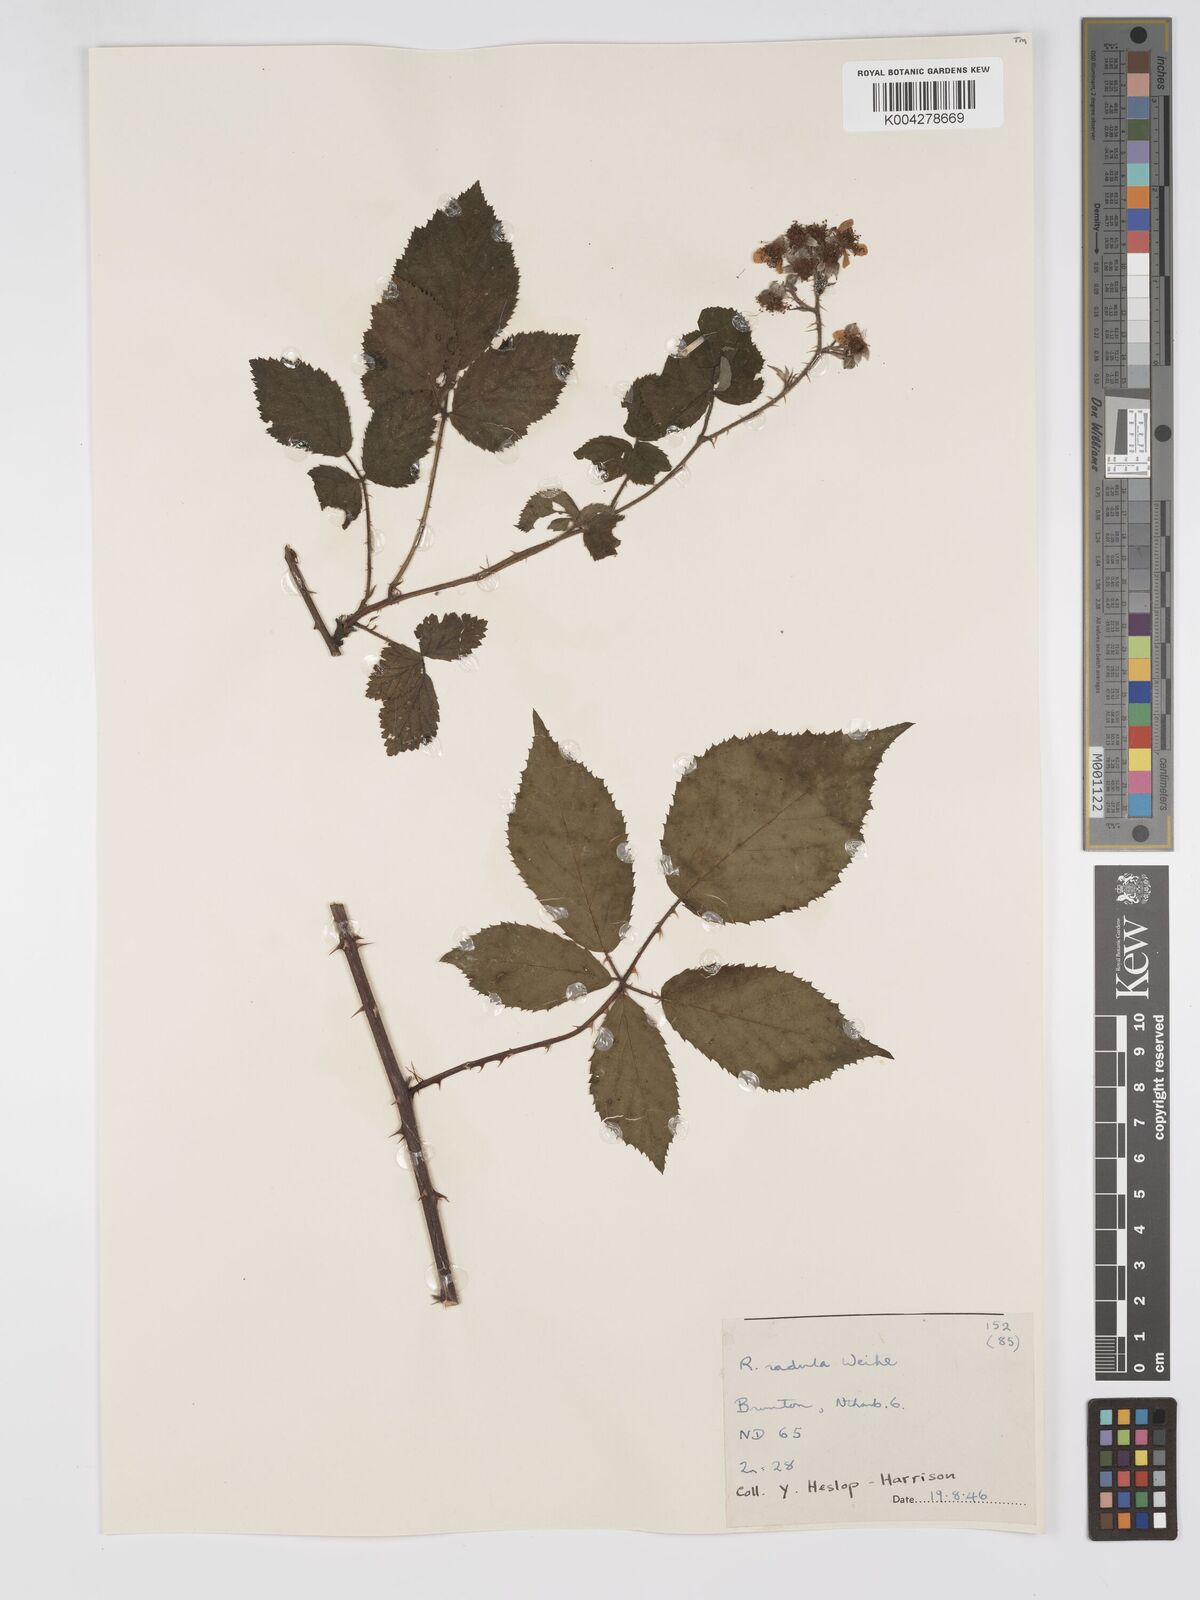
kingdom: Plantae
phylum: Tracheophyta
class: Magnoliopsida
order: Rosales
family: Rosaceae
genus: Rubus
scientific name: Rubus radula
